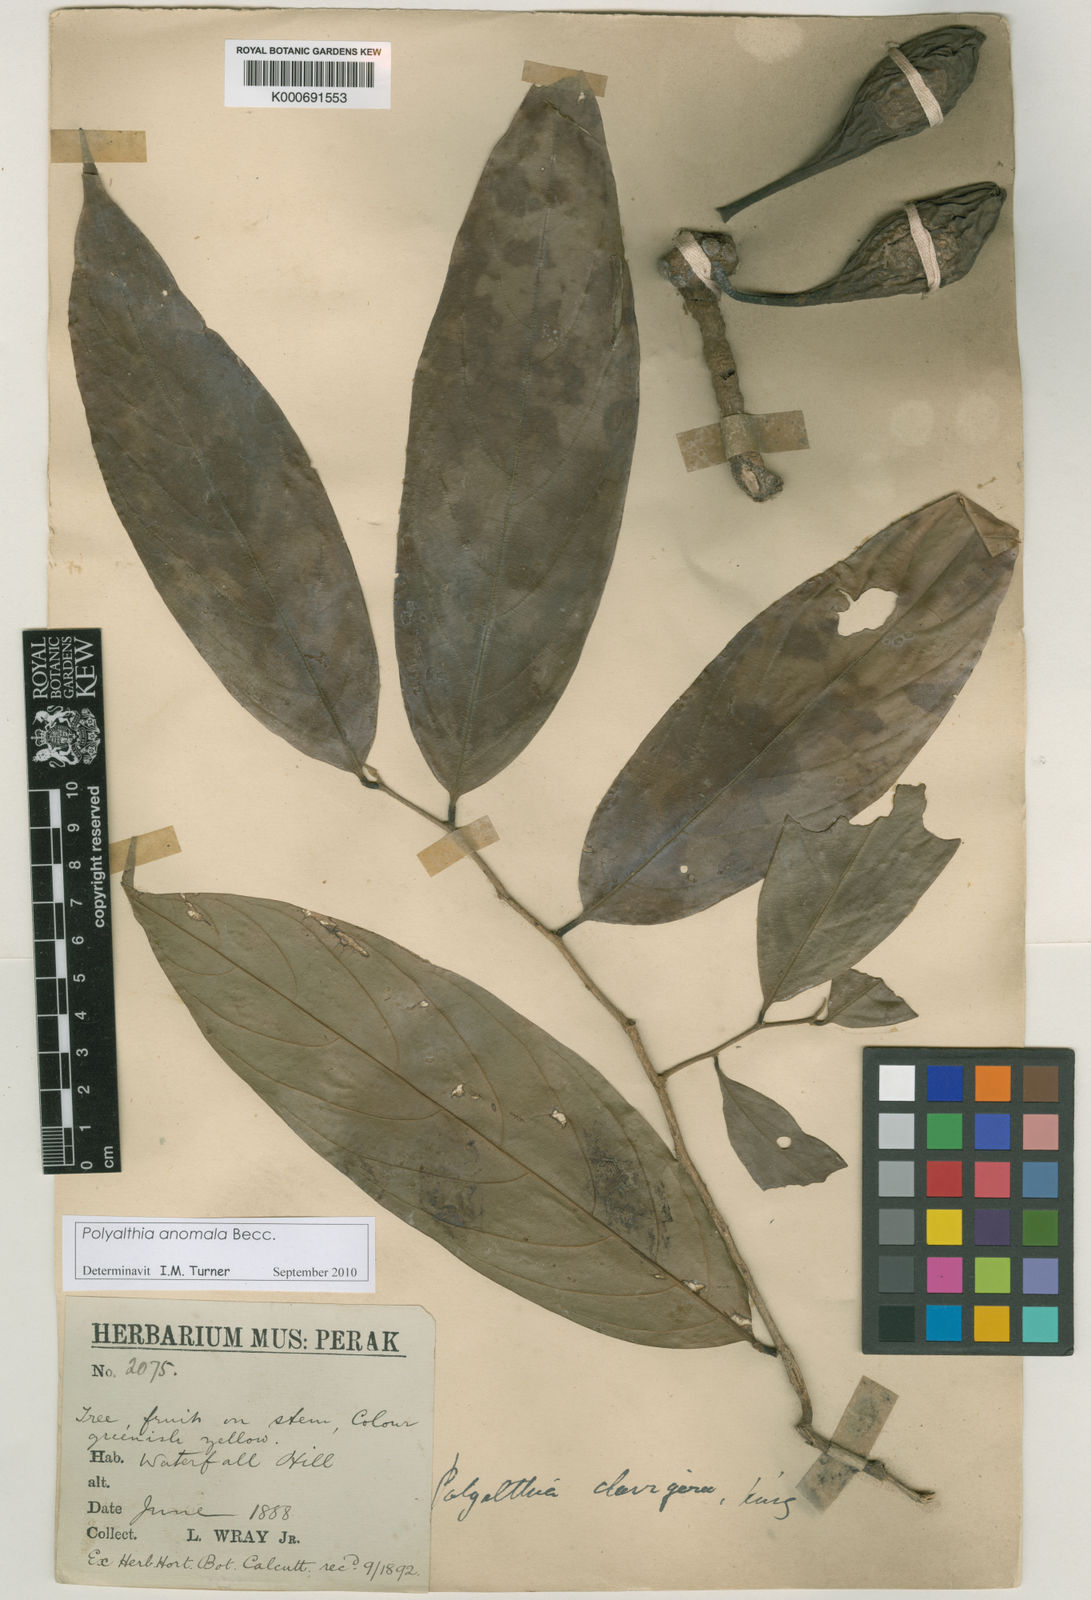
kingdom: Plantae
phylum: Tracheophyta
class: Magnoliopsida
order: Magnoliales
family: Annonaceae
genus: Polyalthia
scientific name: Polyalthia anomala
